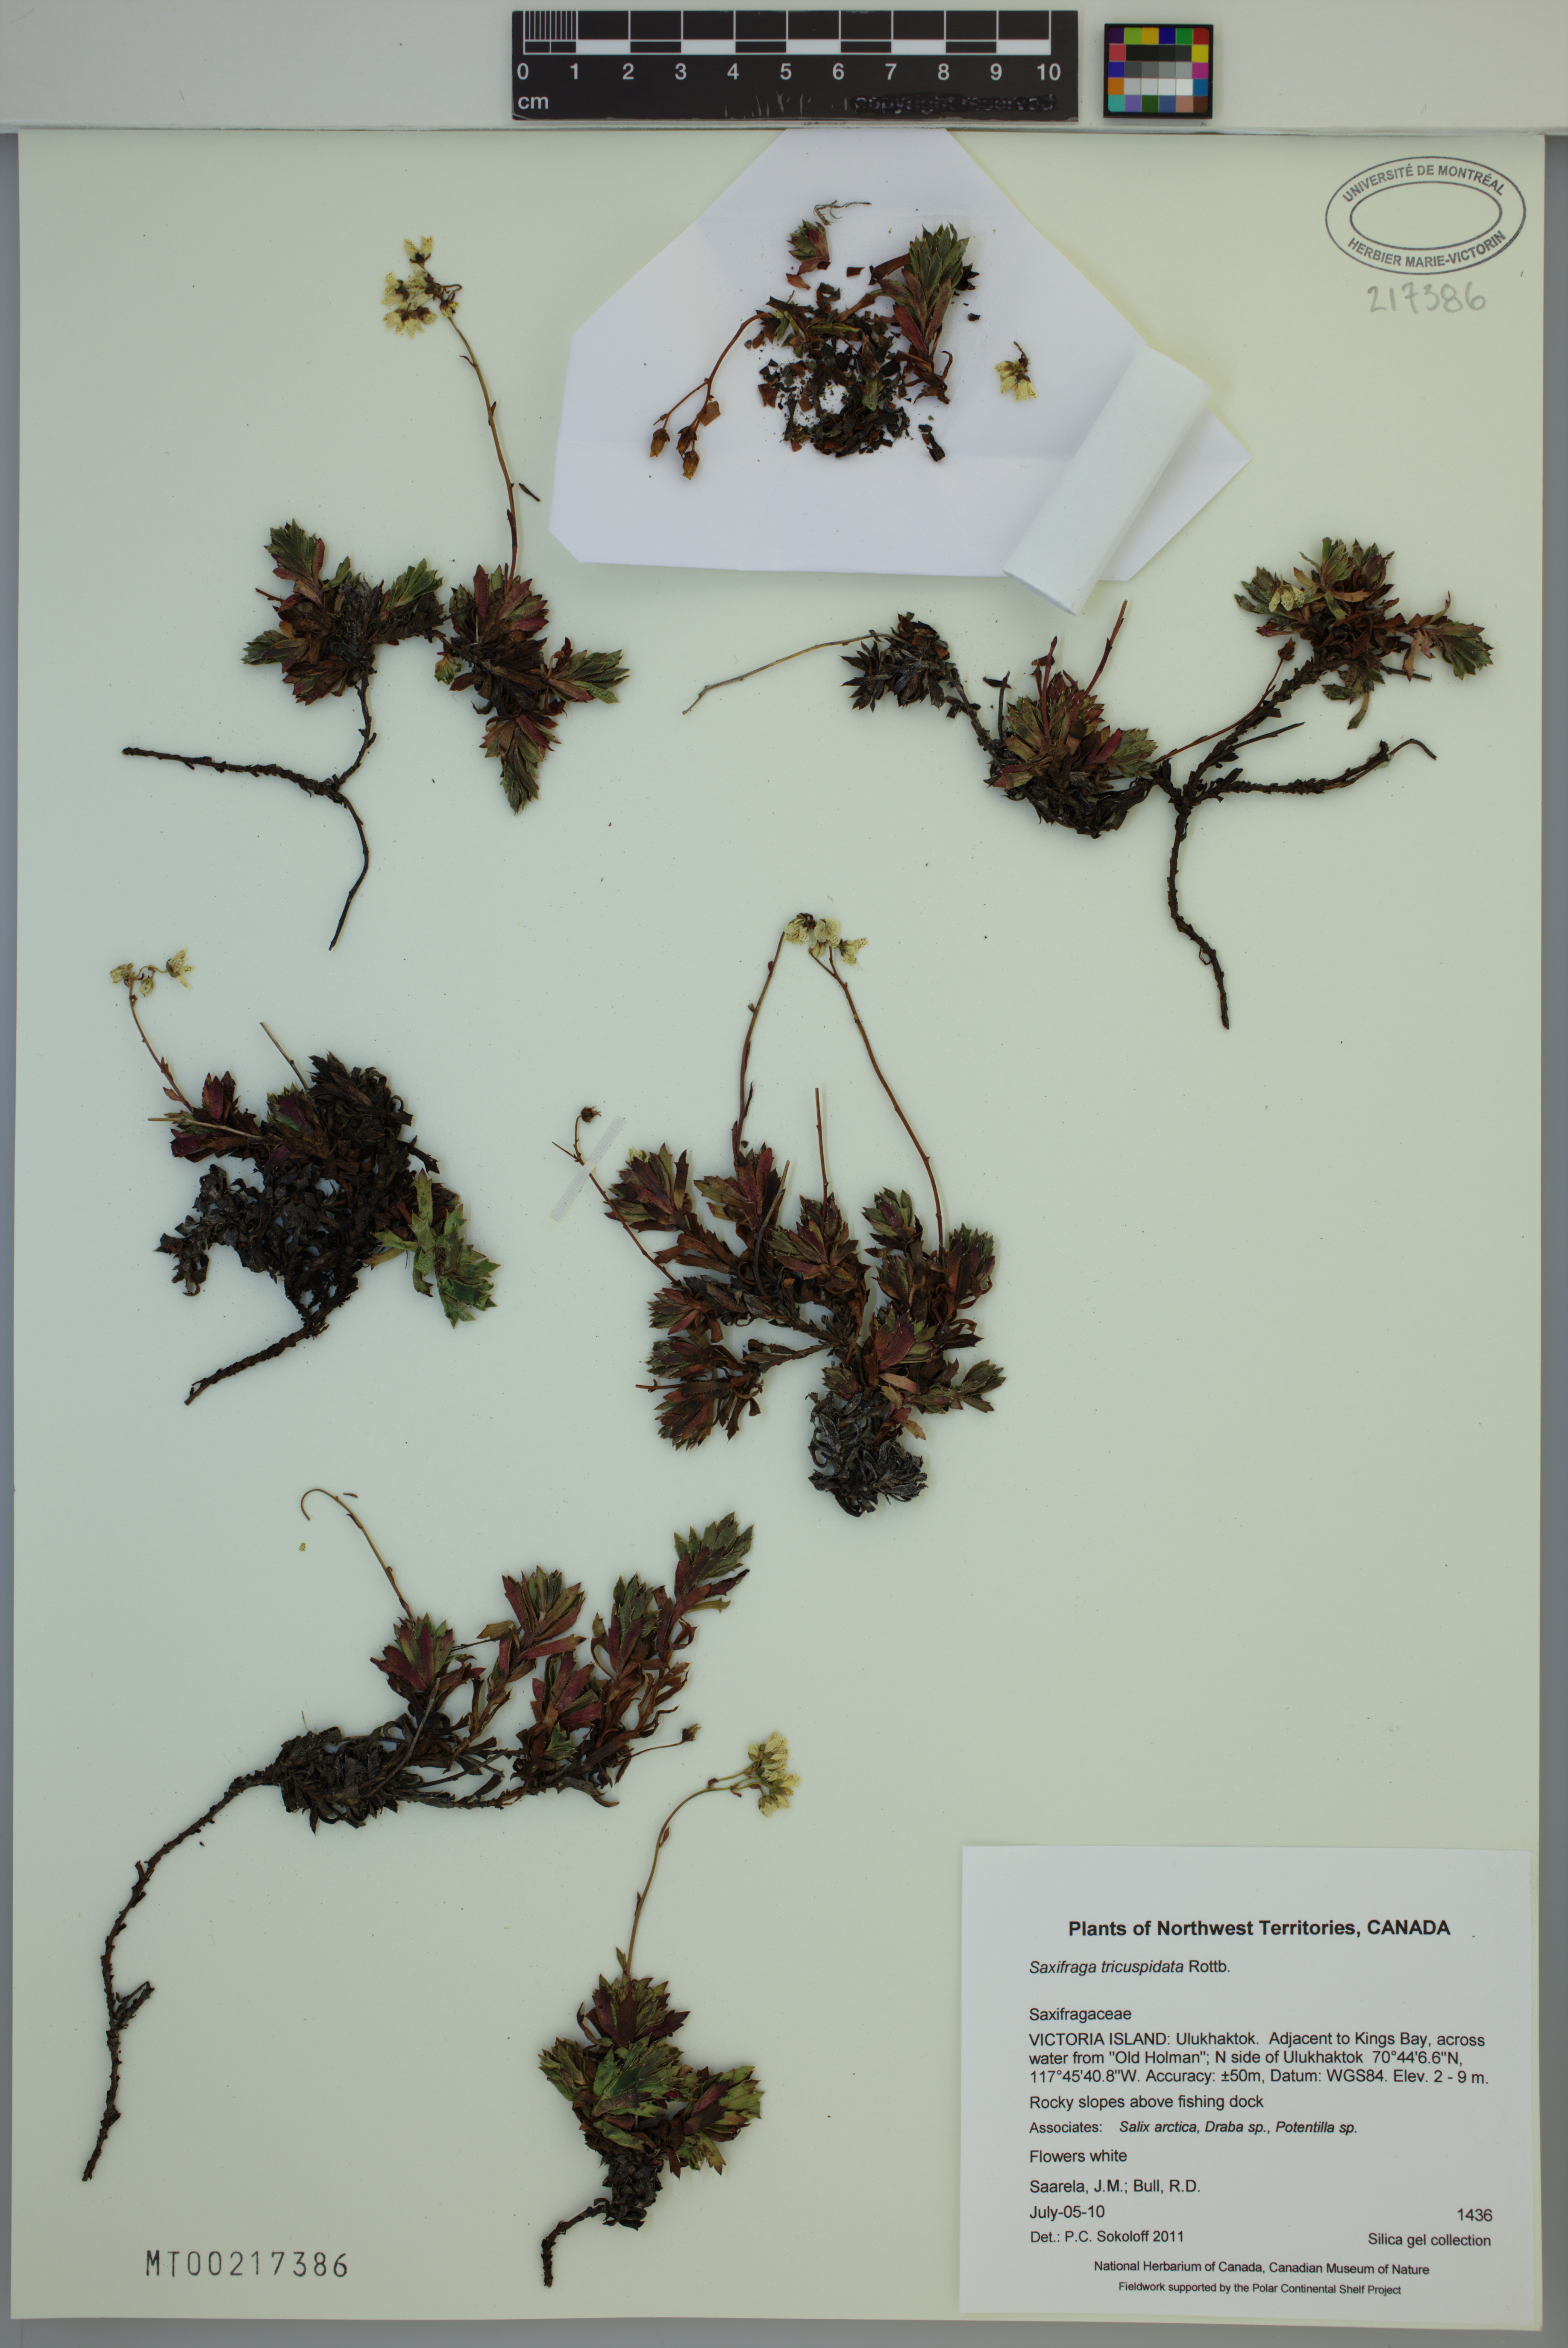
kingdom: Plantae
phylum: Tracheophyta
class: Magnoliopsida
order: Saxifragales
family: Saxifragaceae
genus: Saxifraga
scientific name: Saxifraga tricuspidata
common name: Prickly saxifrage
